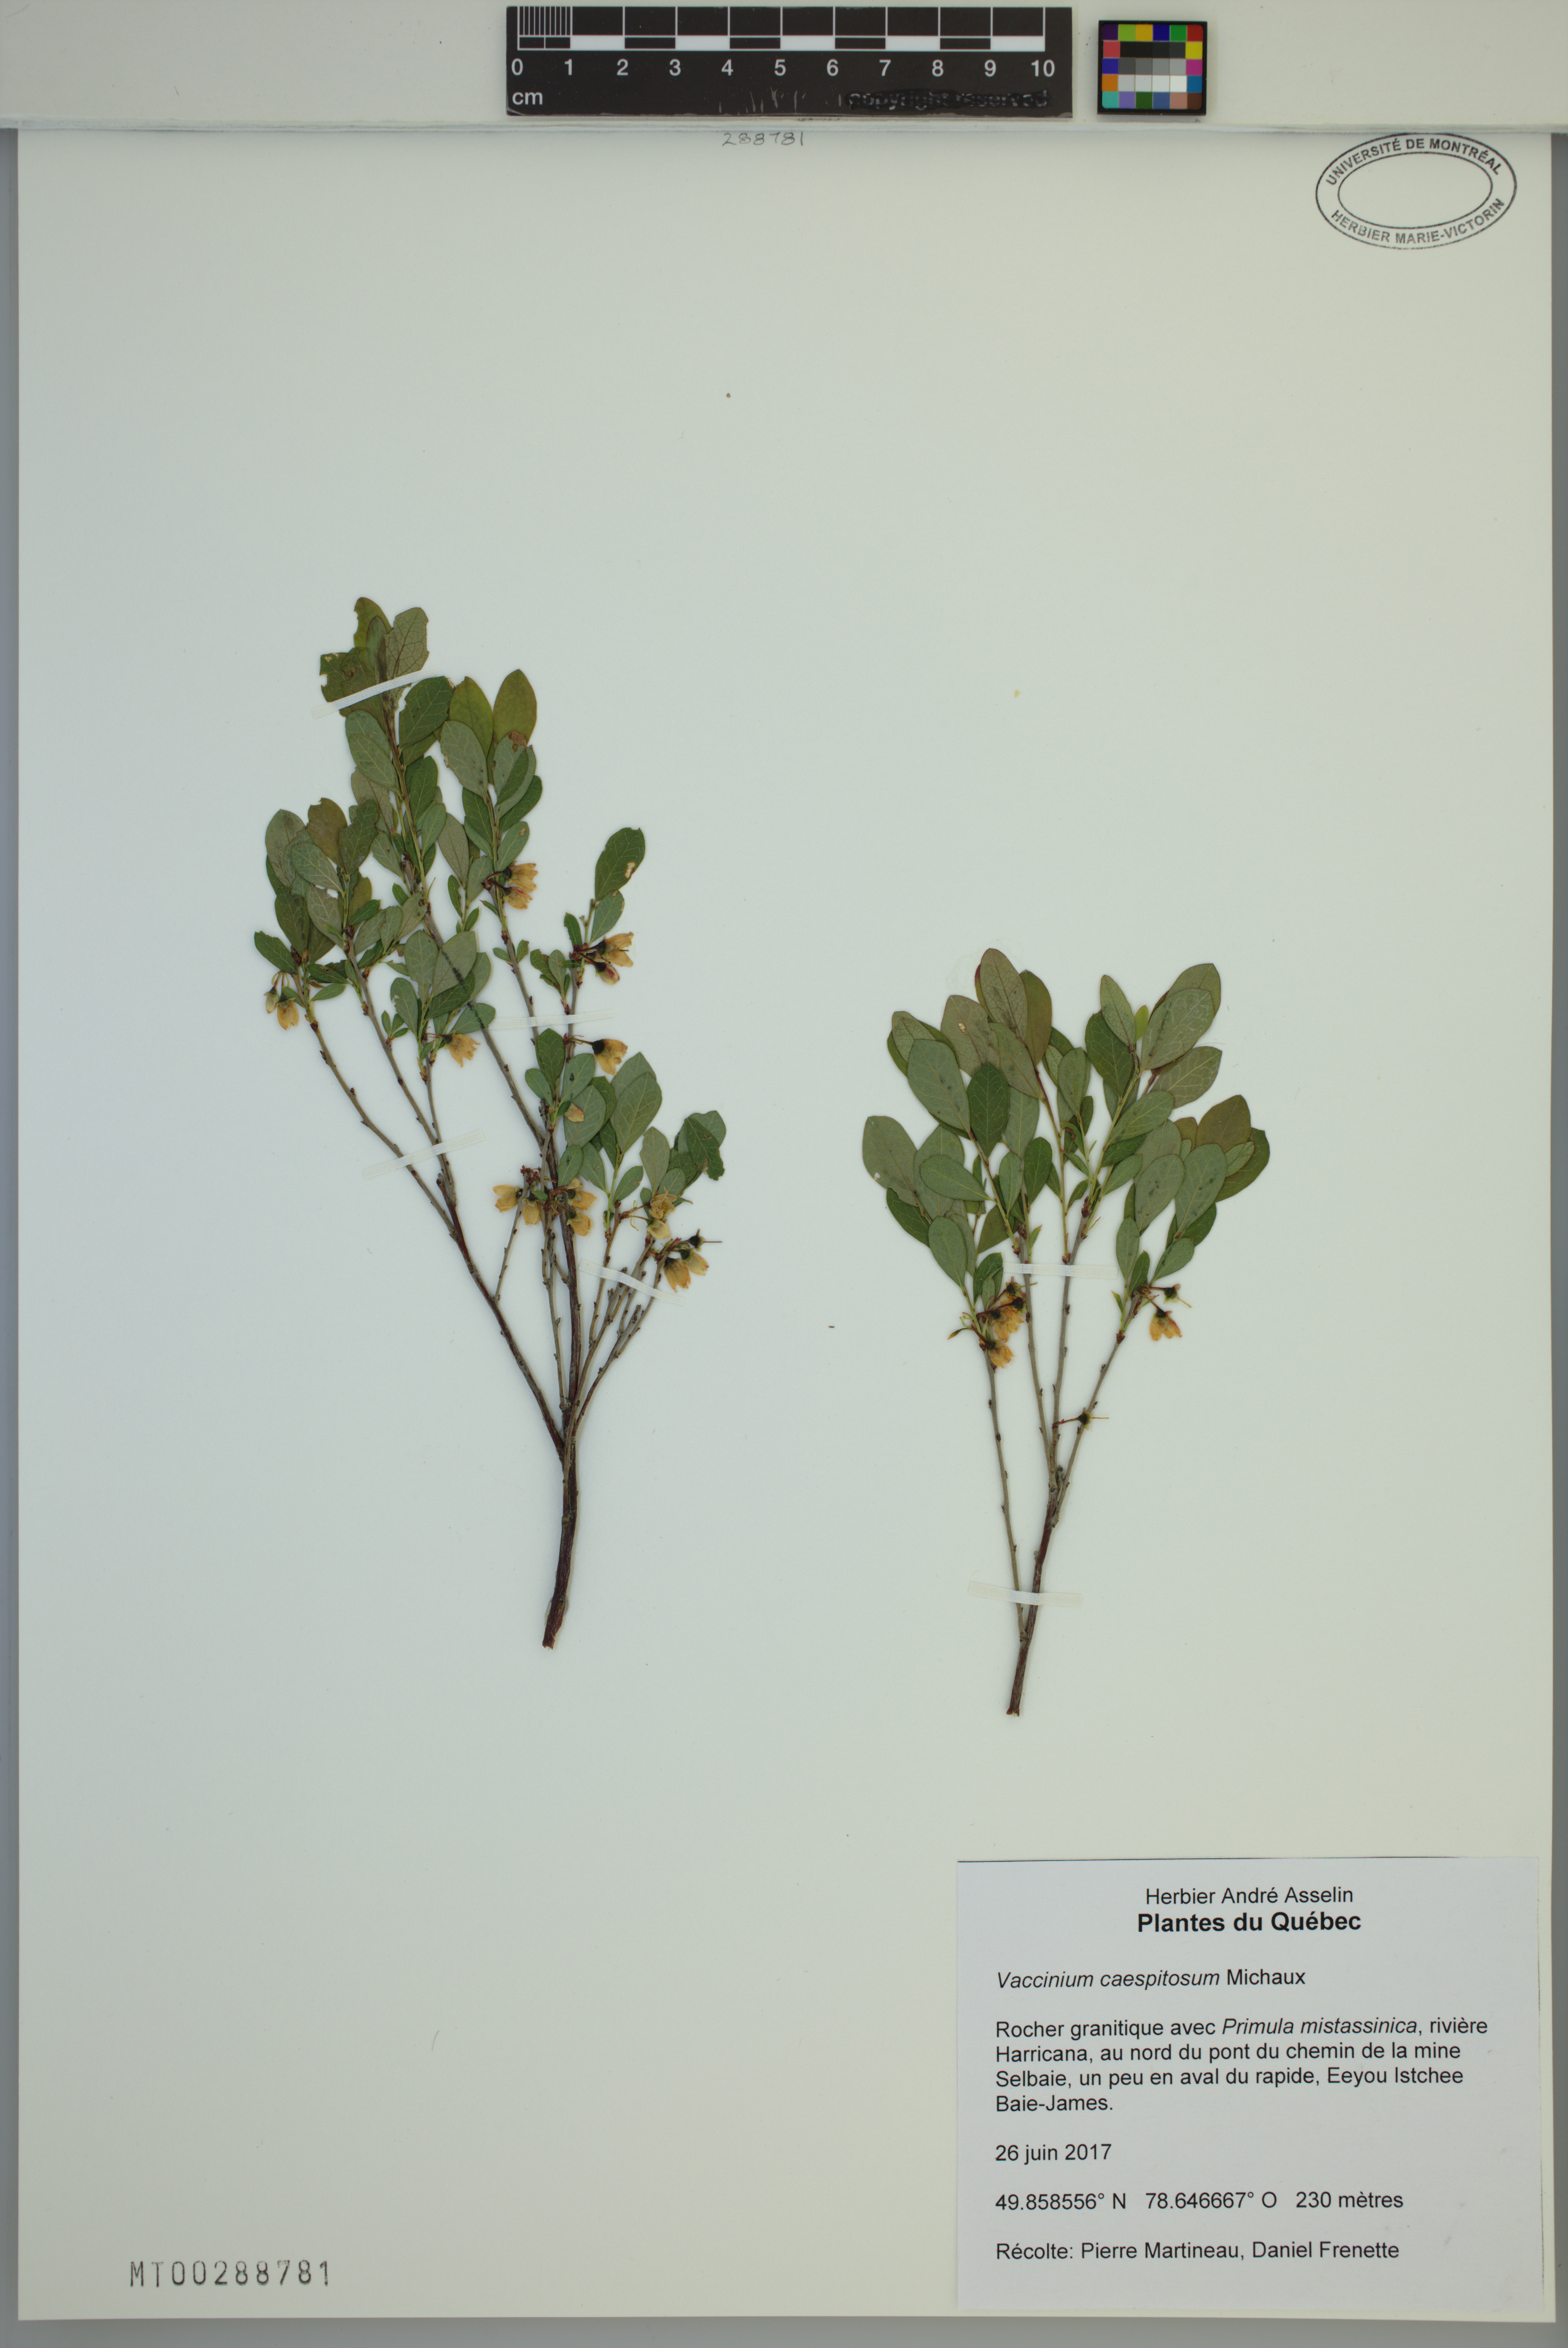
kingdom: Plantae
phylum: Tracheophyta
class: Magnoliopsida
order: Ericales
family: Ericaceae
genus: Vaccinium
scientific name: Vaccinium cespitosum
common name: Dwarf bilberry
